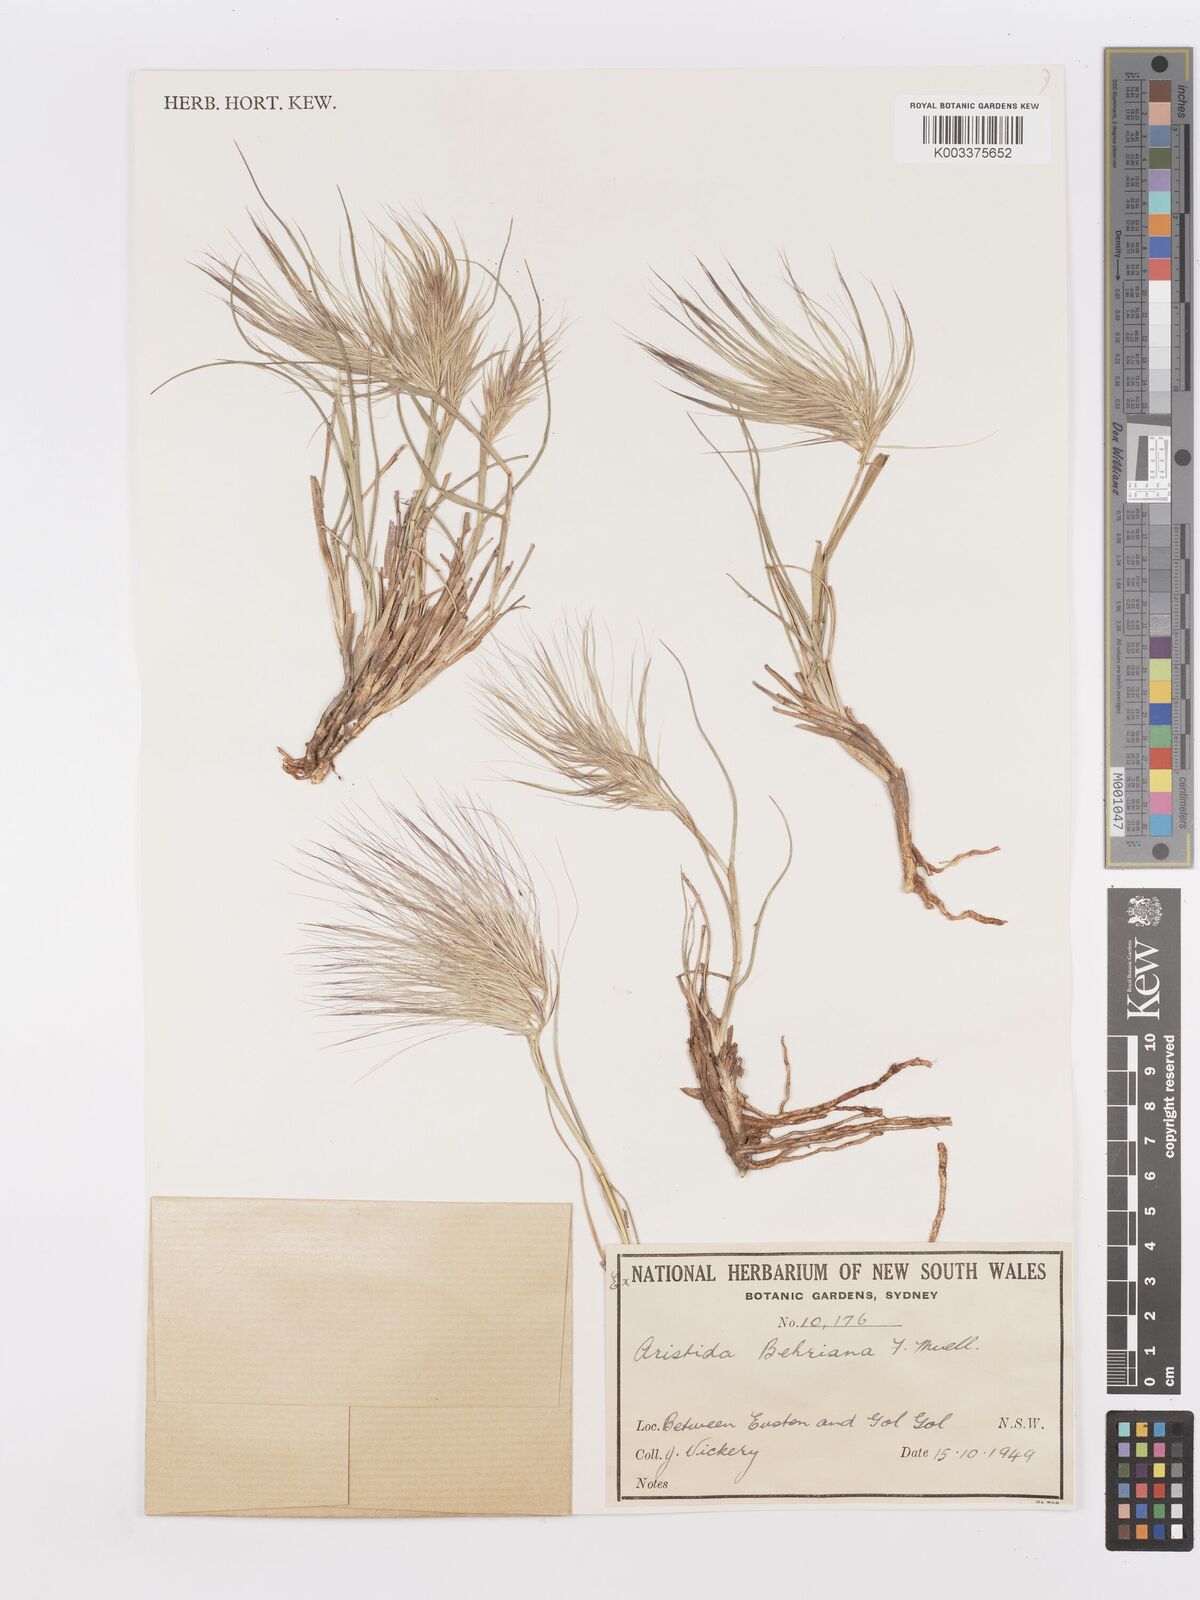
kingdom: Plantae
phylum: Tracheophyta
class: Liliopsida
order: Poales
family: Poaceae
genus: Aristida
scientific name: Aristida behriana
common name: Long-awn wire grass
